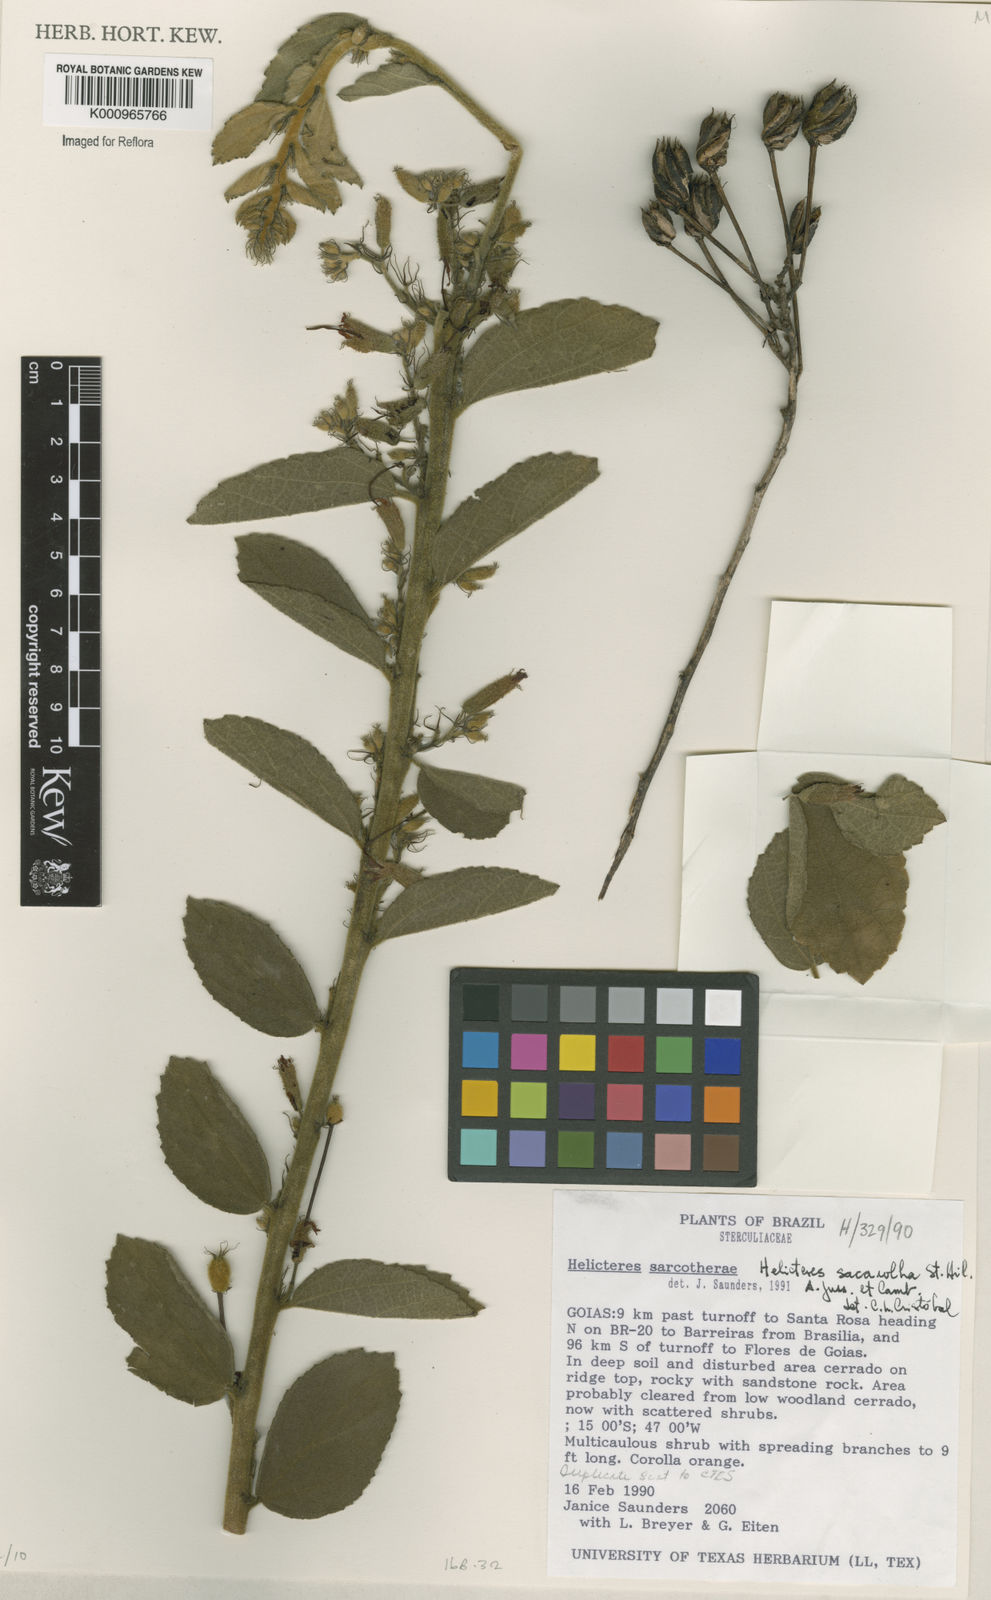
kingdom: Plantae
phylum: Tracheophyta
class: Magnoliopsida
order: Malvales
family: Malvaceae
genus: Helicteres
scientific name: Helicteres
